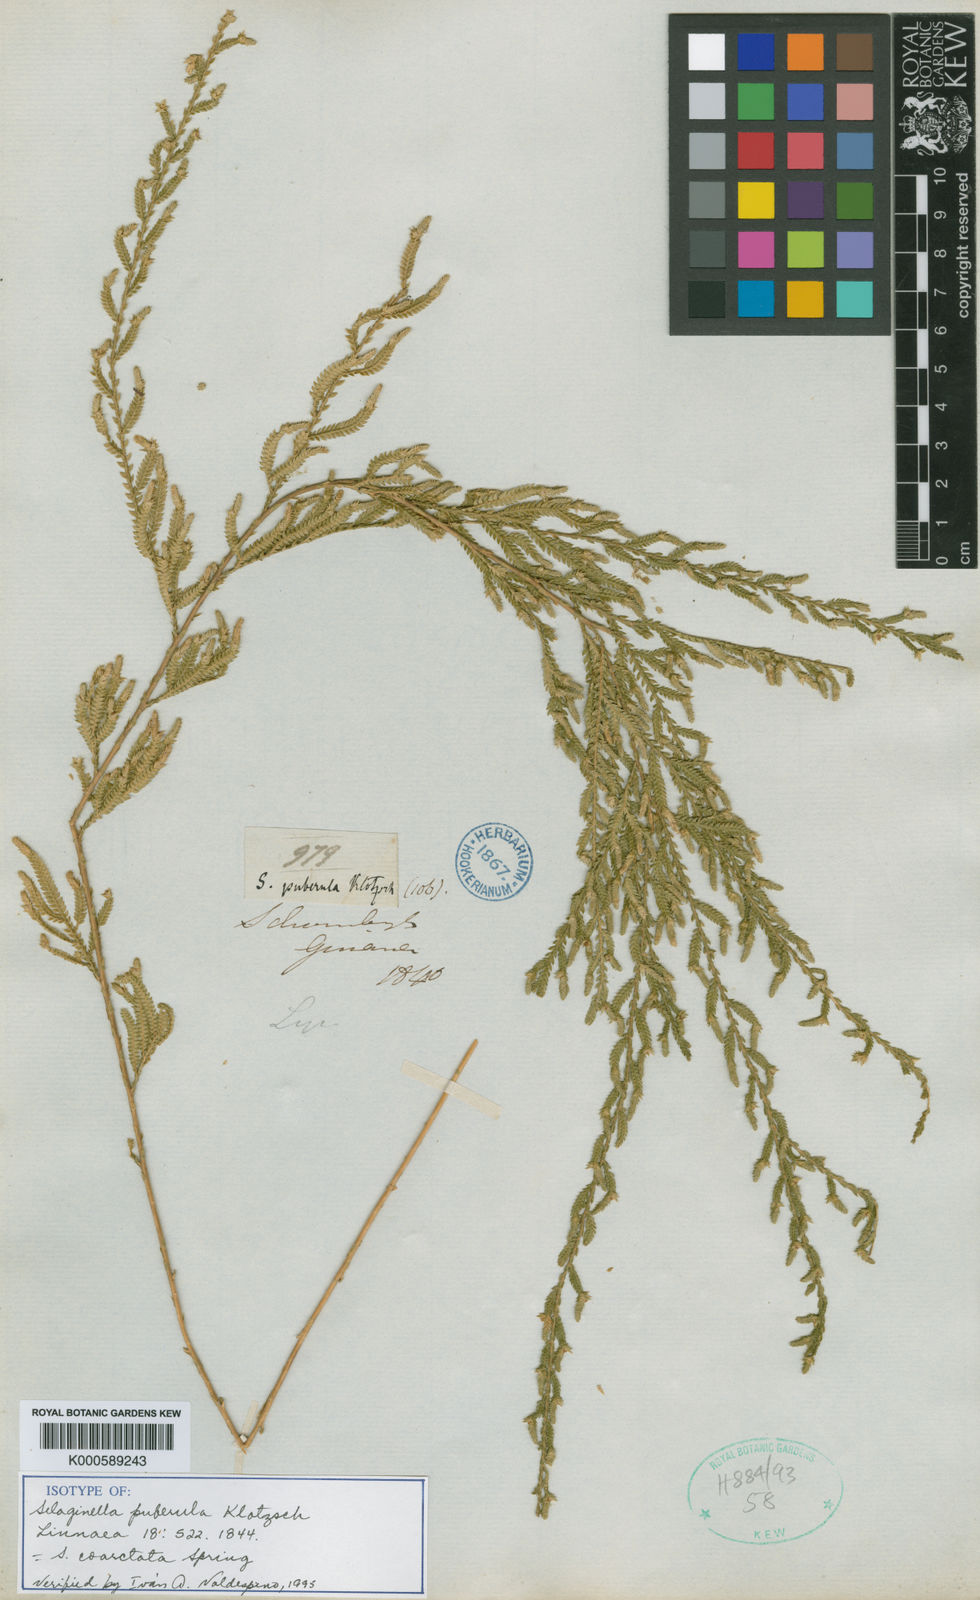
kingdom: Plantae
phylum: Tracheophyta
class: Lycopodiopsida
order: Selaginellales
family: Selaginellaceae
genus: Selaginella
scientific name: Selaginella coarctata
